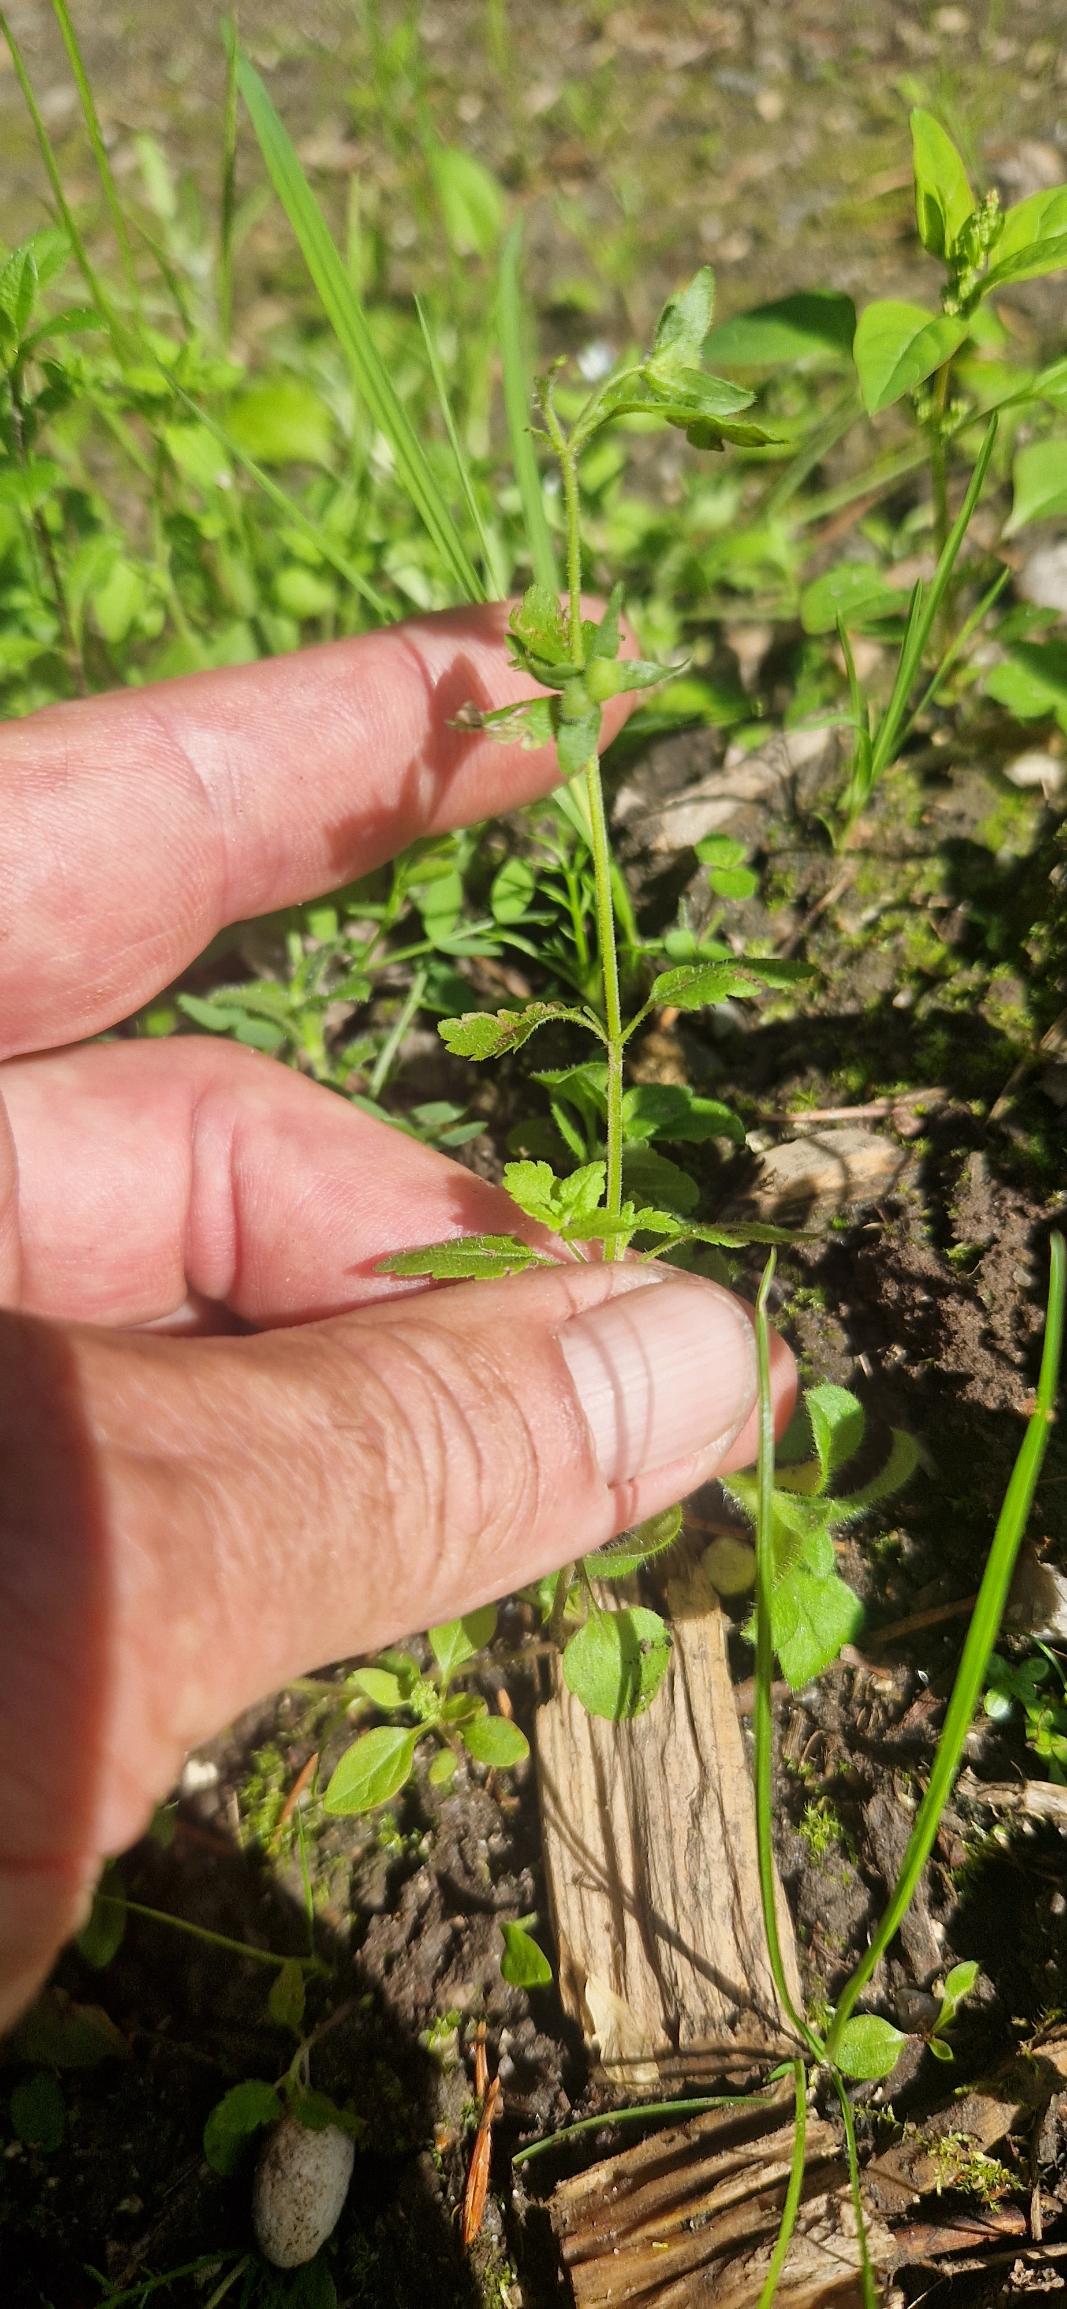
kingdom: Plantae
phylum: Tracheophyta
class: Magnoliopsida
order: Lamiales
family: Plantaginaceae
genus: Veronica
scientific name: Veronica agrestis
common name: Flerfarvet ærenpris
